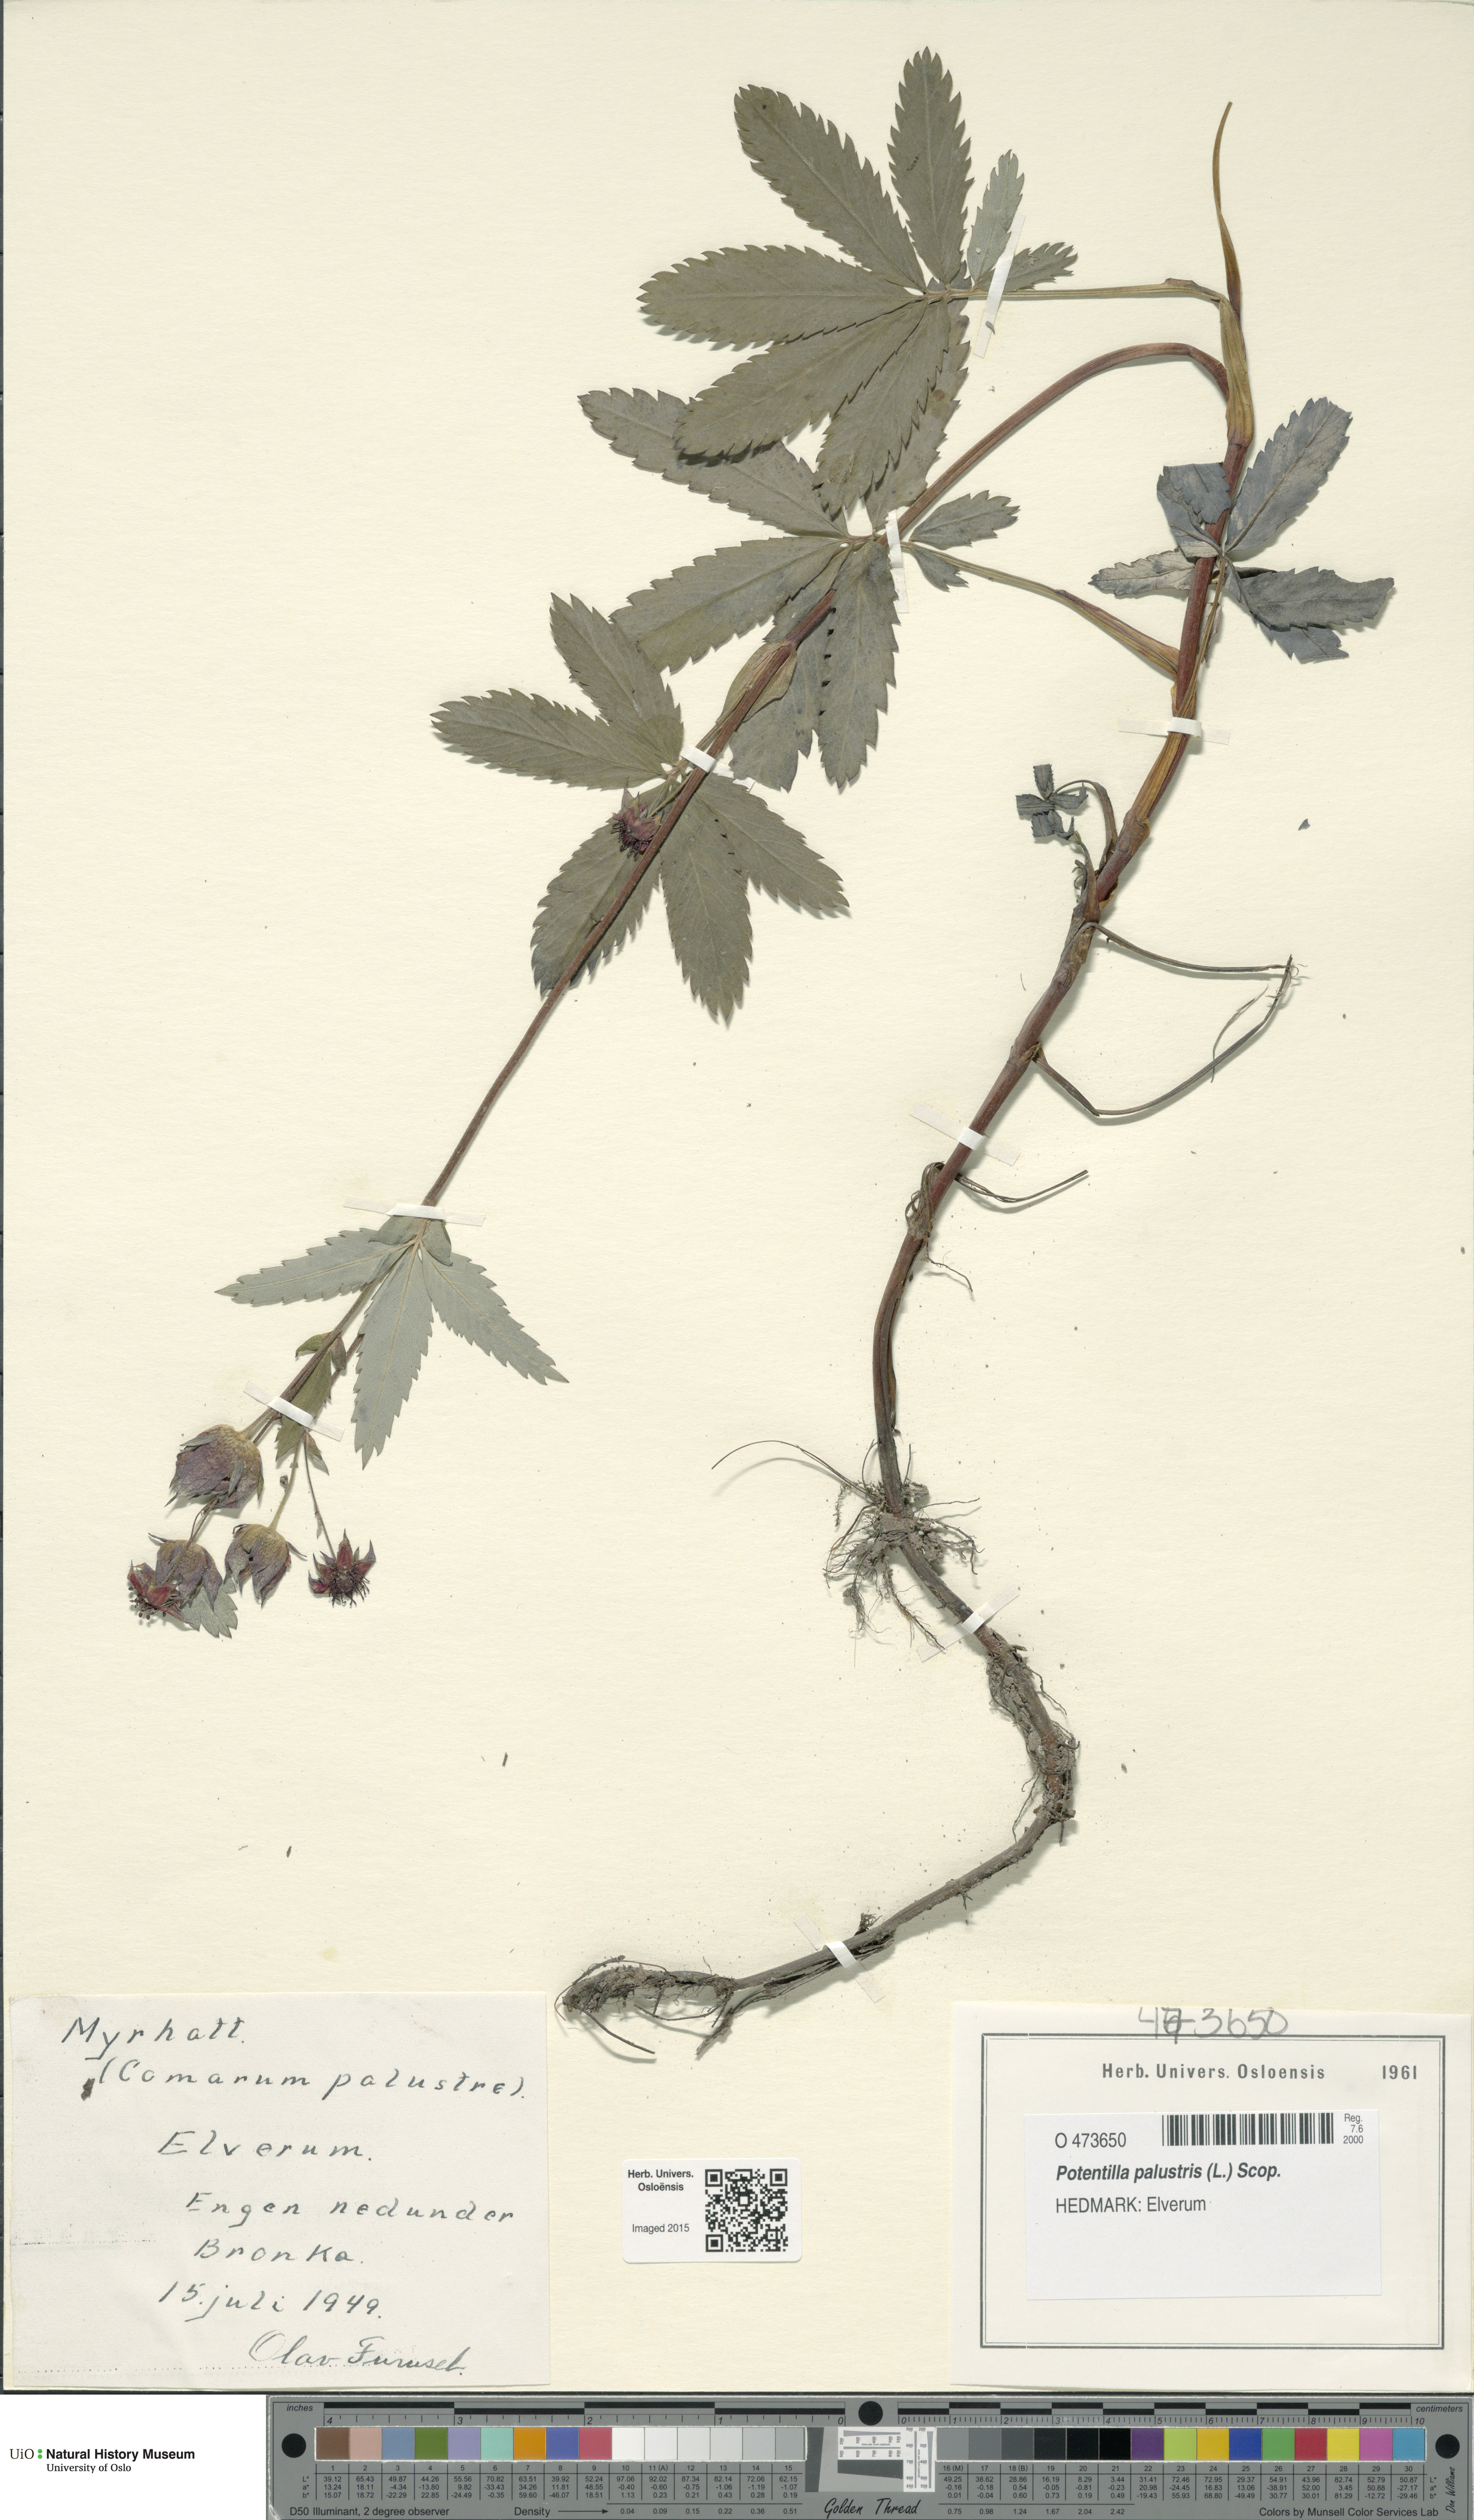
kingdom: Plantae
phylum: Tracheophyta
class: Magnoliopsida
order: Rosales
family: Rosaceae
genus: Comarum
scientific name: Comarum palustre
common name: Marsh cinquefoil
